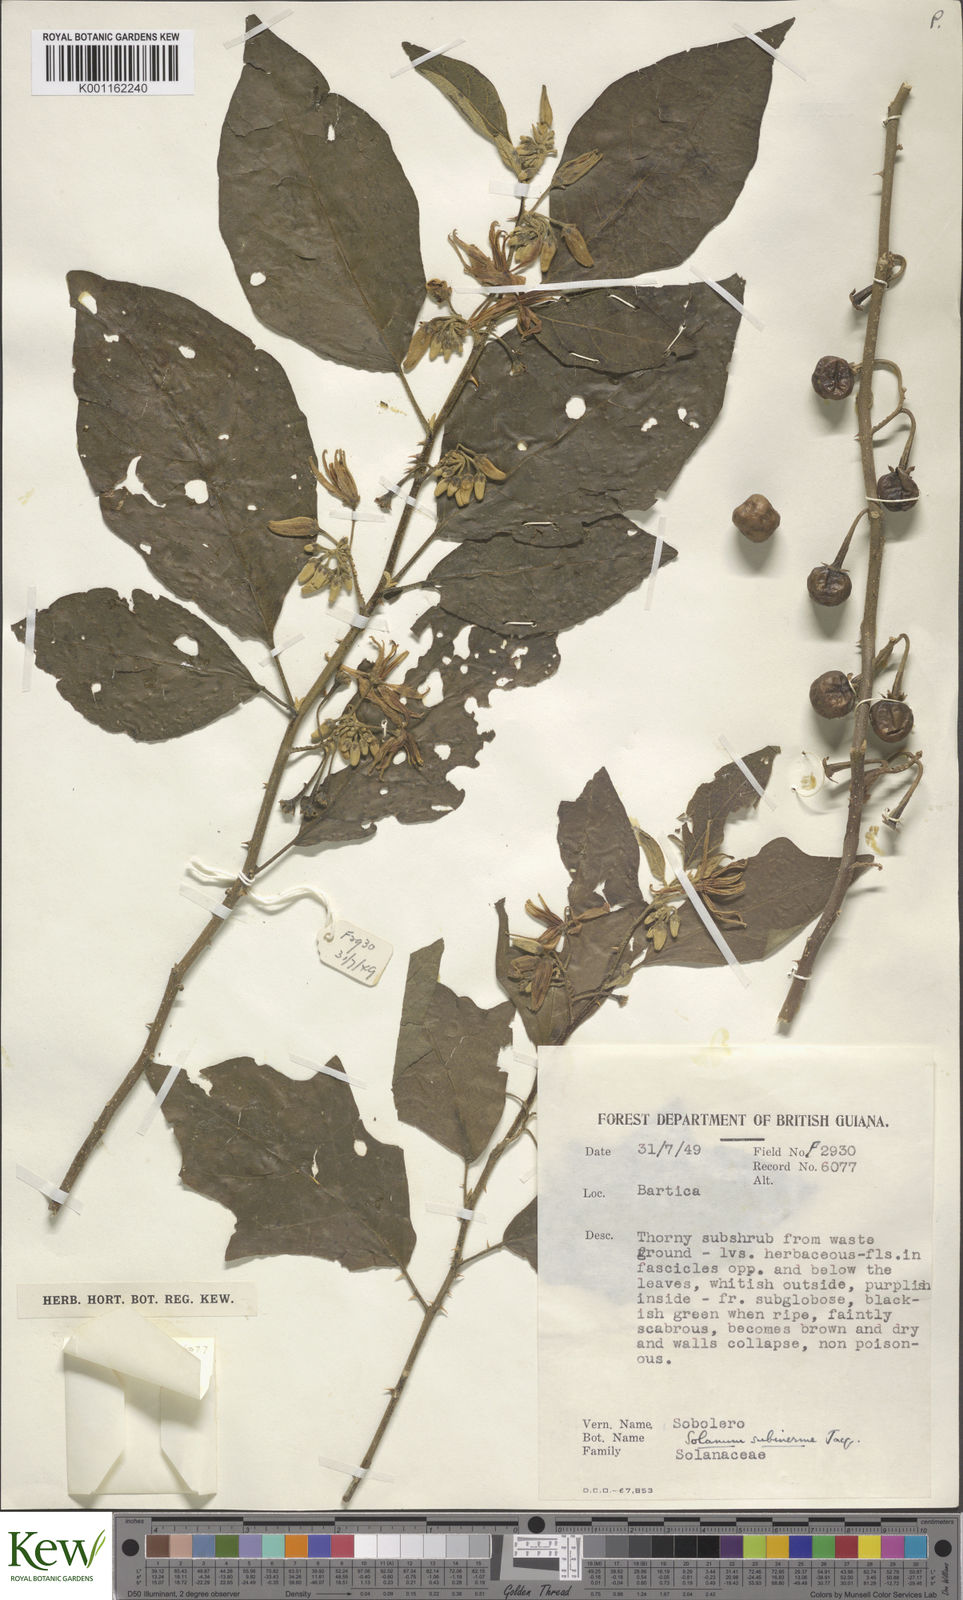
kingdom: Plantae
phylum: Tracheophyta
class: Magnoliopsida
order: Solanales
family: Solanaceae
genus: Solanum
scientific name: Solanum subinerme
